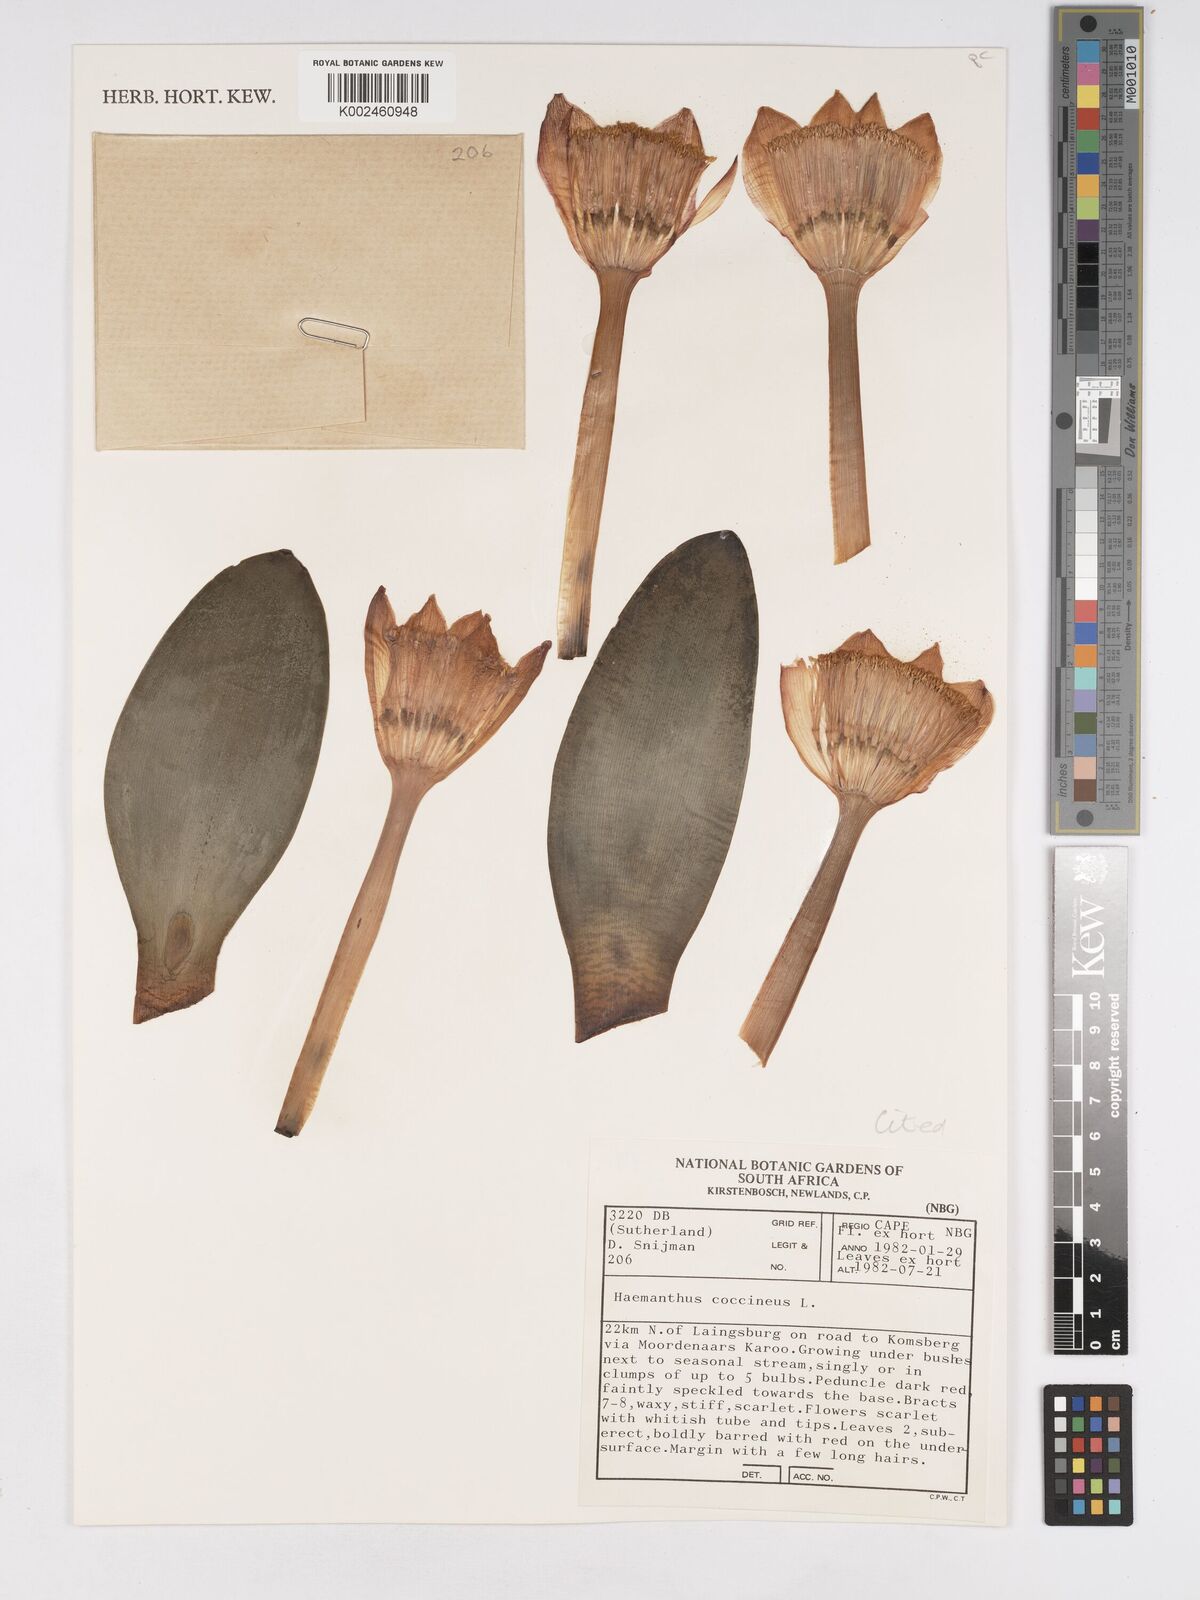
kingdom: Plantae
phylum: Tracheophyta
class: Liliopsida
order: Asparagales
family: Amaryllidaceae
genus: Haemanthus
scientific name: Haemanthus coccineus
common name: Cape-tulip
